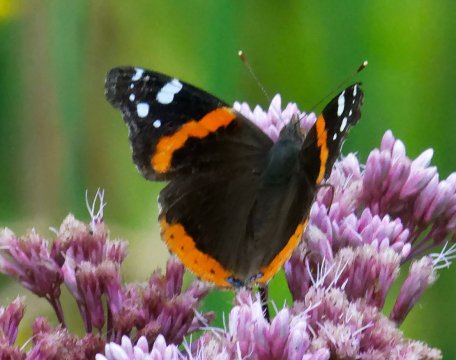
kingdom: Animalia
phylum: Arthropoda
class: Insecta
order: Lepidoptera
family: Nymphalidae
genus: Vanessa
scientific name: Vanessa atalanta
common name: Red Admiral
